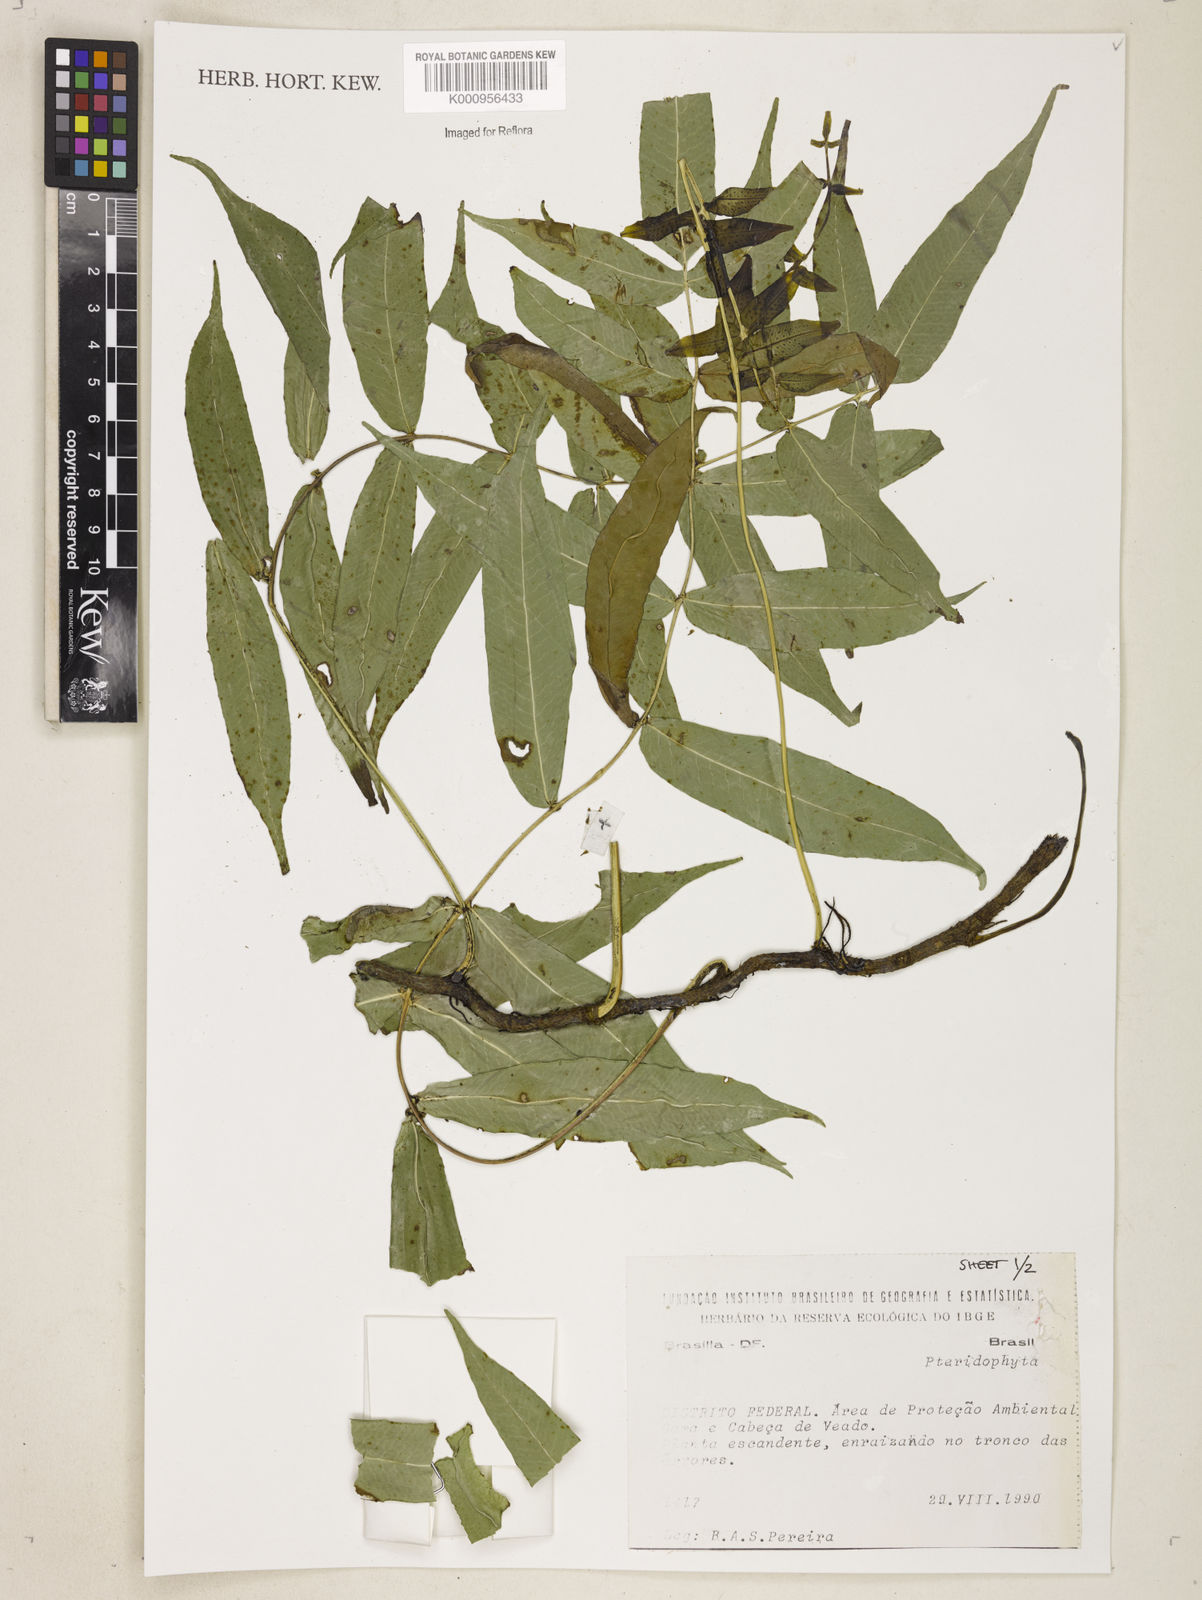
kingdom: Plantae
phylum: Tracheophyta
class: Polypodiopsida
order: Polypodiales
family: Polypodiaceae
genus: Polypodium
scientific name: Polypodium
